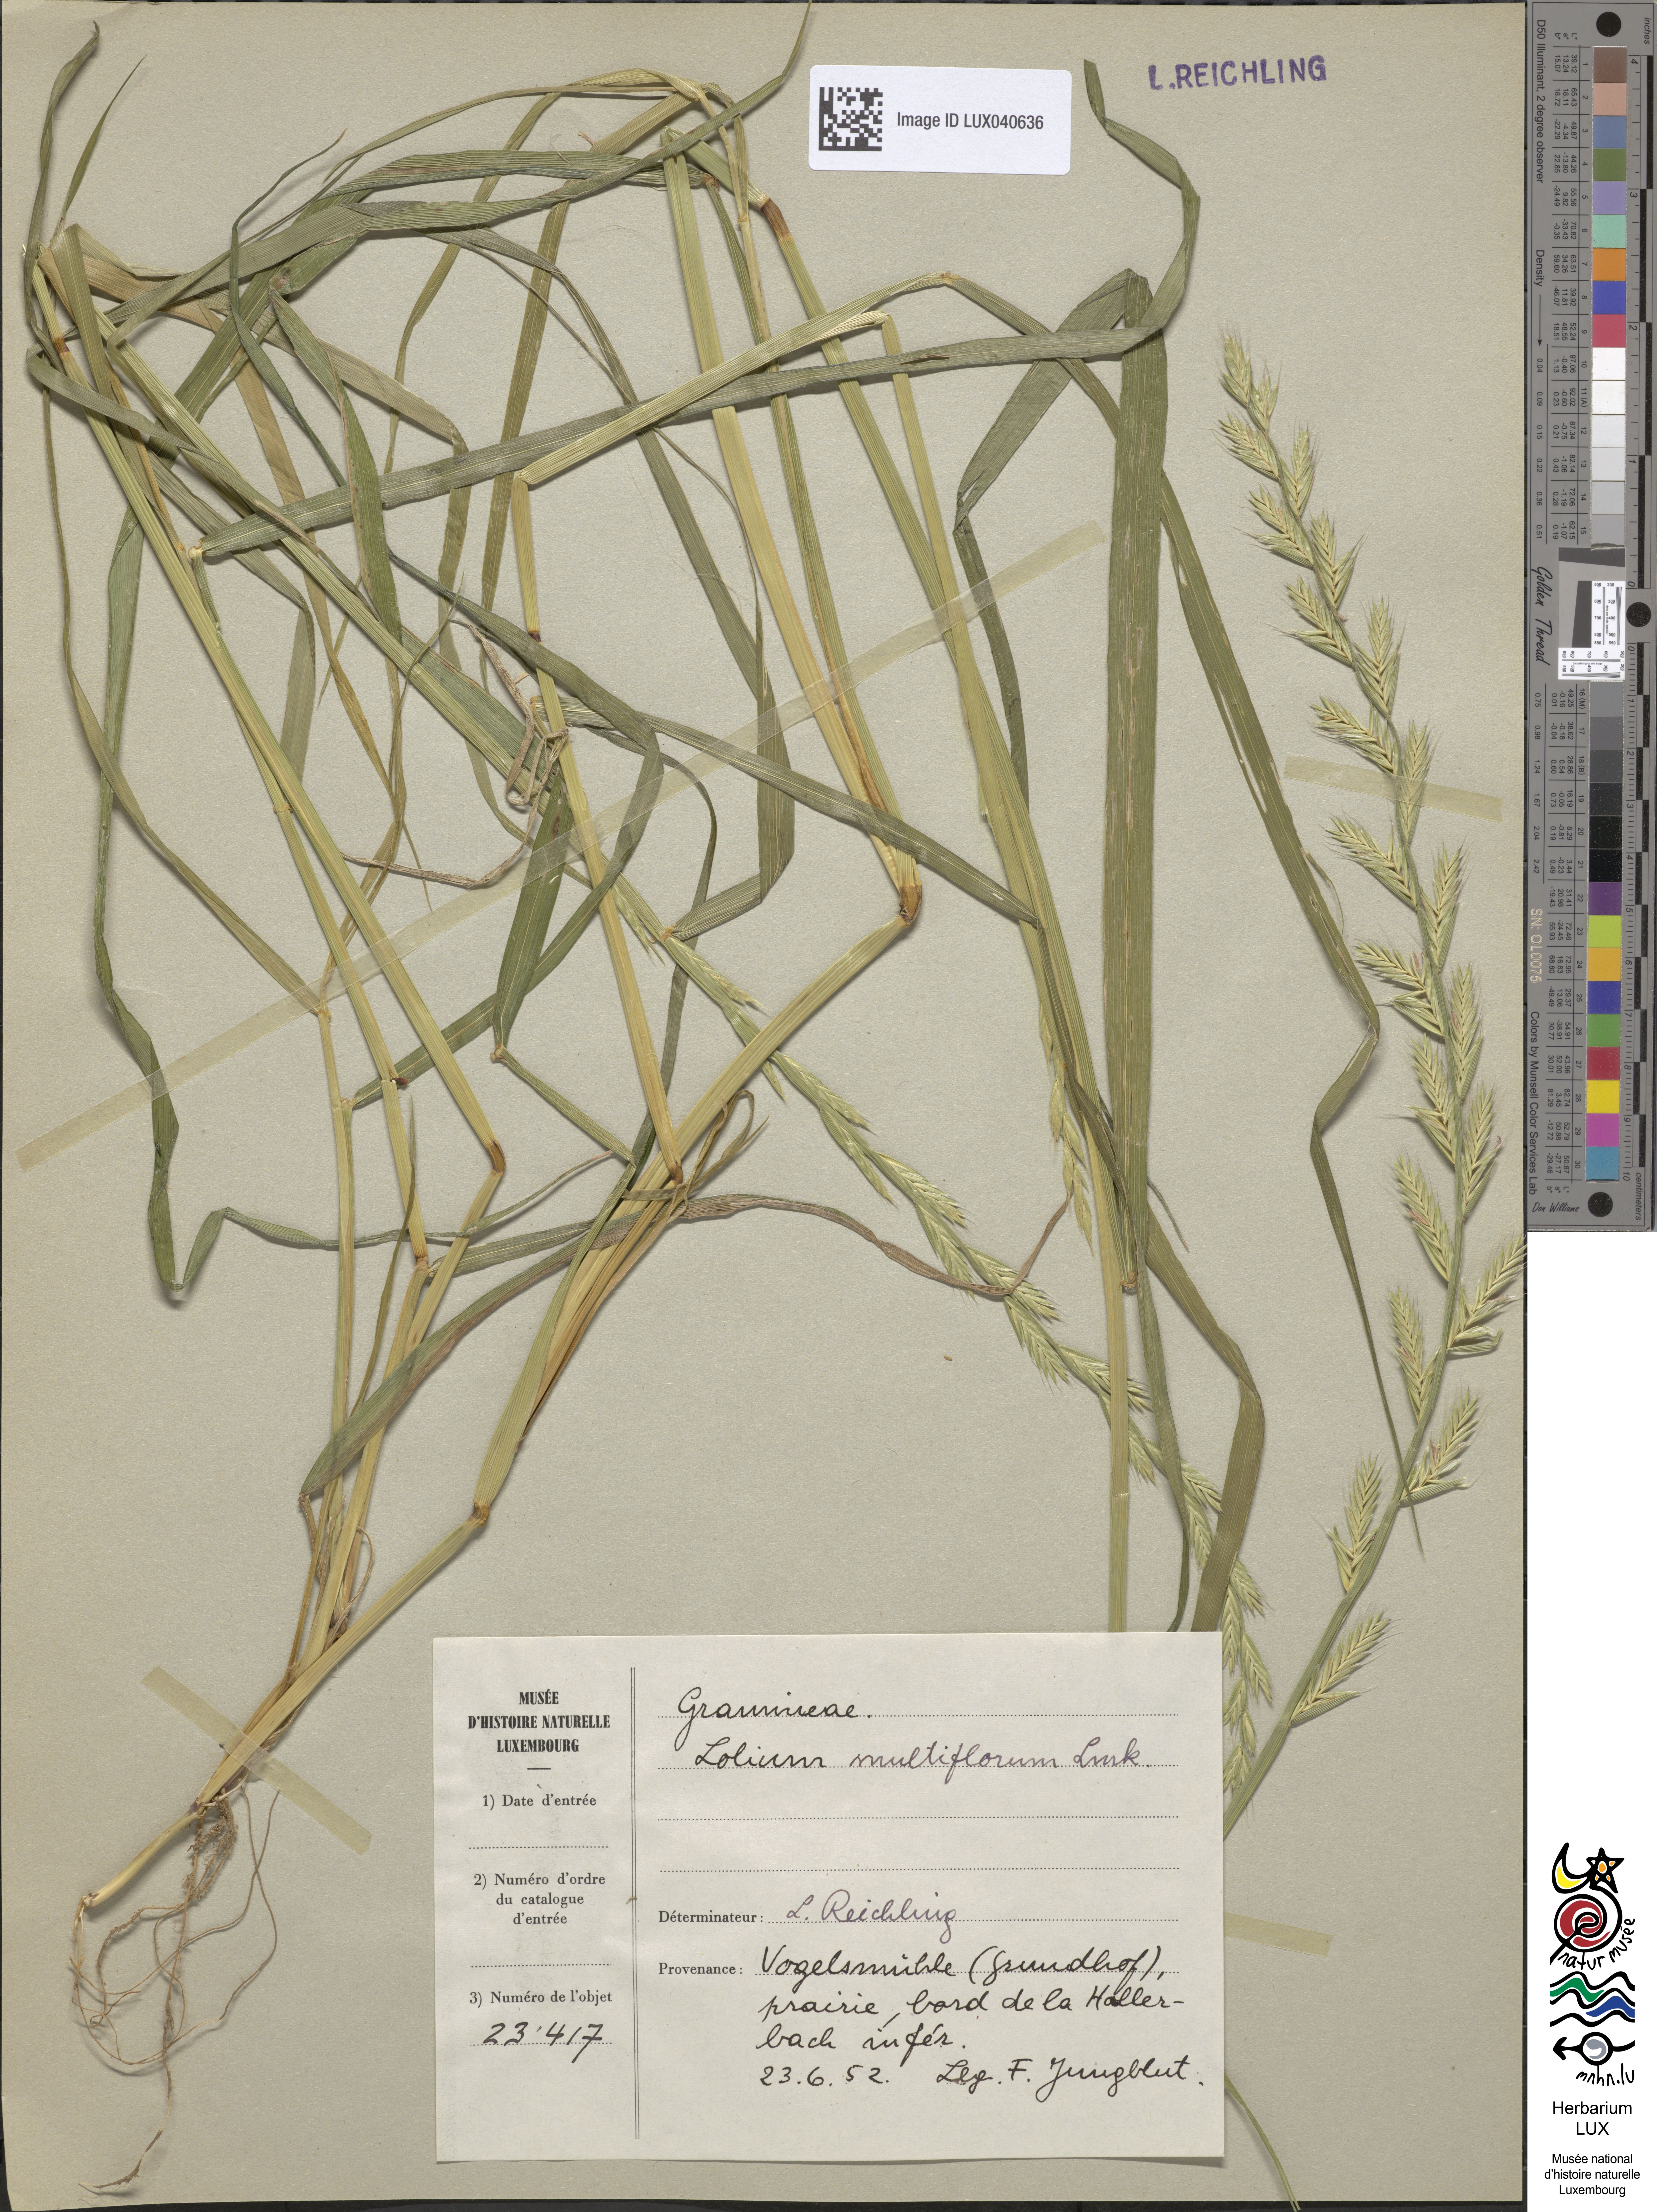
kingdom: Plantae
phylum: Tracheophyta
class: Liliopsida
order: Poales
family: Poaceae
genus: Lolium
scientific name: Lolium multiflorum
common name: Annual ryegrass
